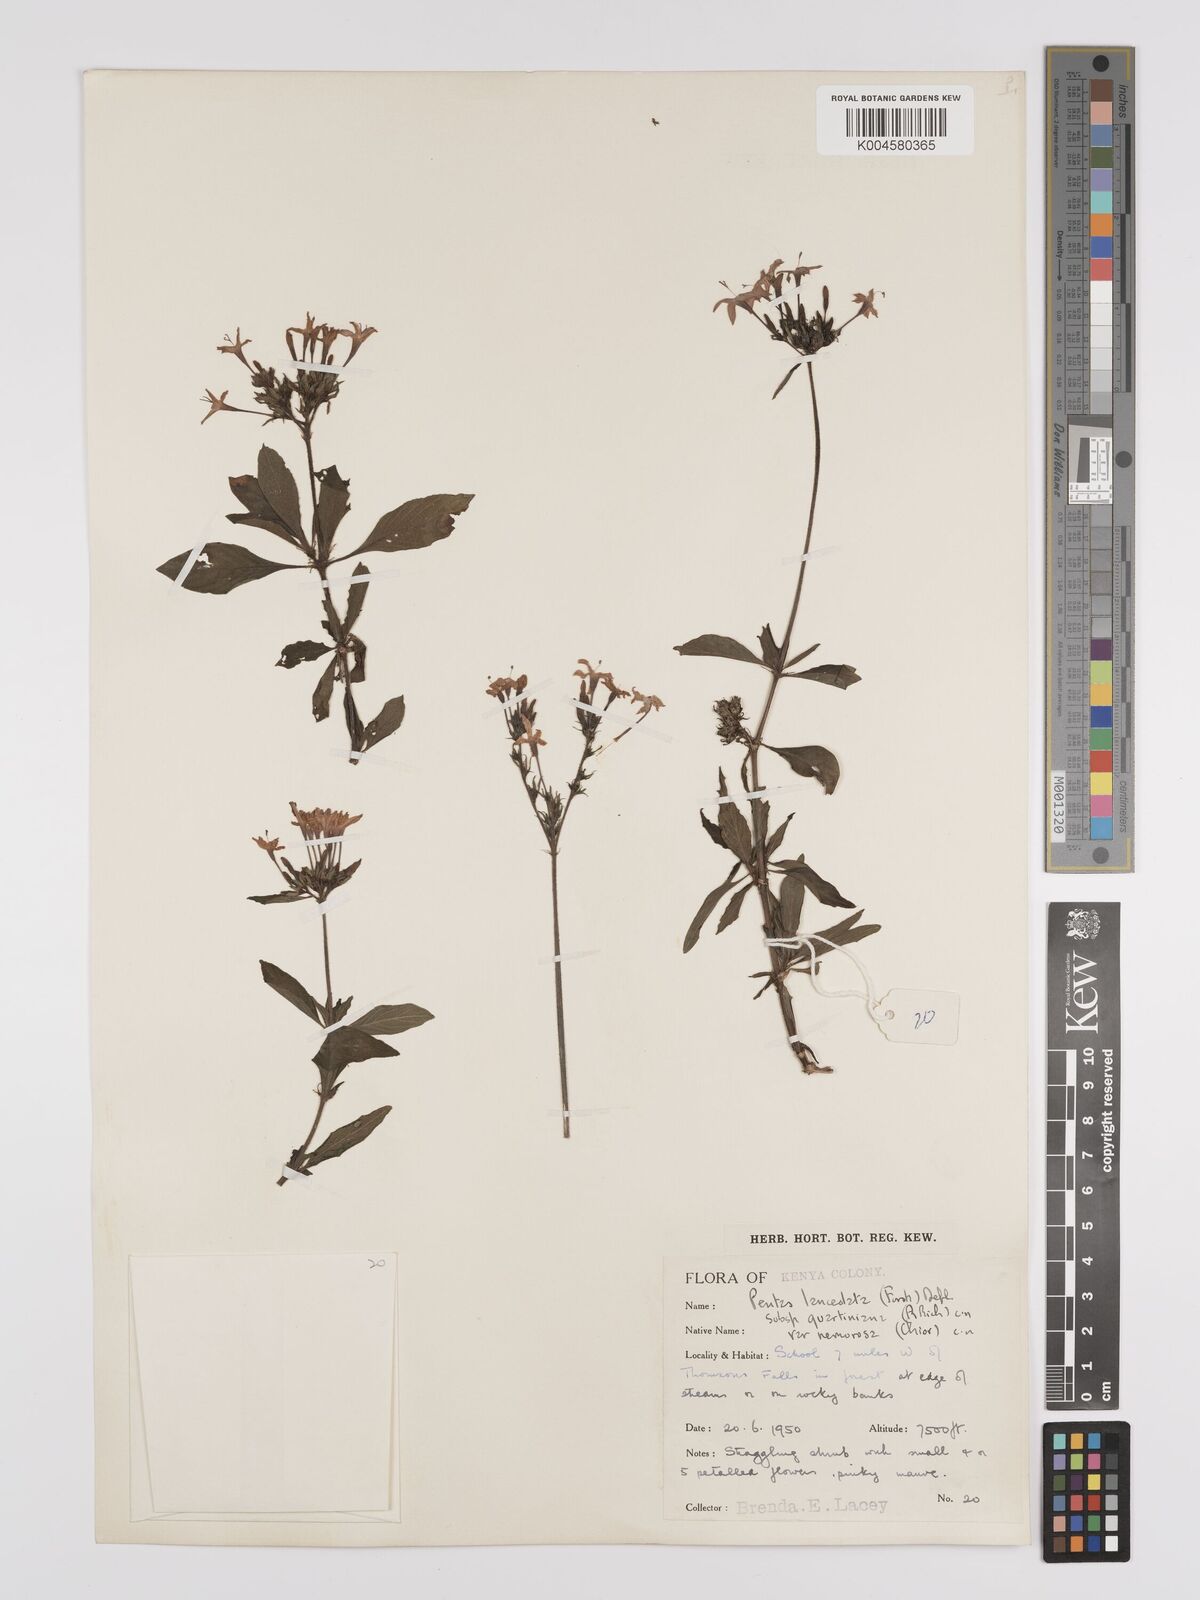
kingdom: Plantae
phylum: Tracheophyta
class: Magnoliopsida
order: Gentianales
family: Rubiaceae
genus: Pentas
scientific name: Pentas lanceolata
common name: Egyptian starcluster
